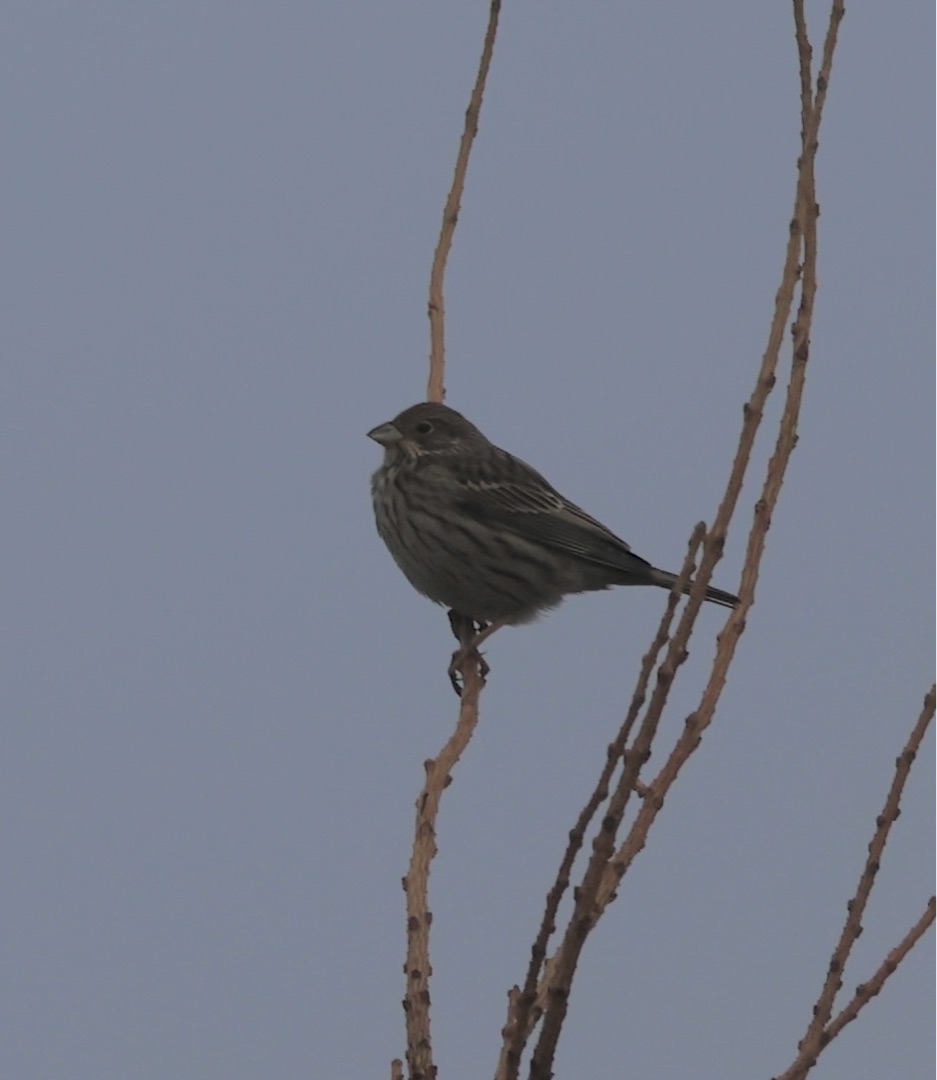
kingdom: Animalia
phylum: Chordata
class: Aves
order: Passeriformes
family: Emberizidae
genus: Emberiza
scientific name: Emberiza calandra
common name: Bomlærke
